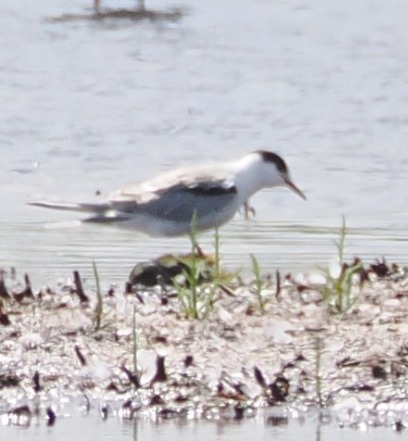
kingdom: Animalia
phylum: Chordata
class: Aves
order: Charadriiformes
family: Laridae
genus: Sterna
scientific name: Sterna hirundo
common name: Fjordterne
